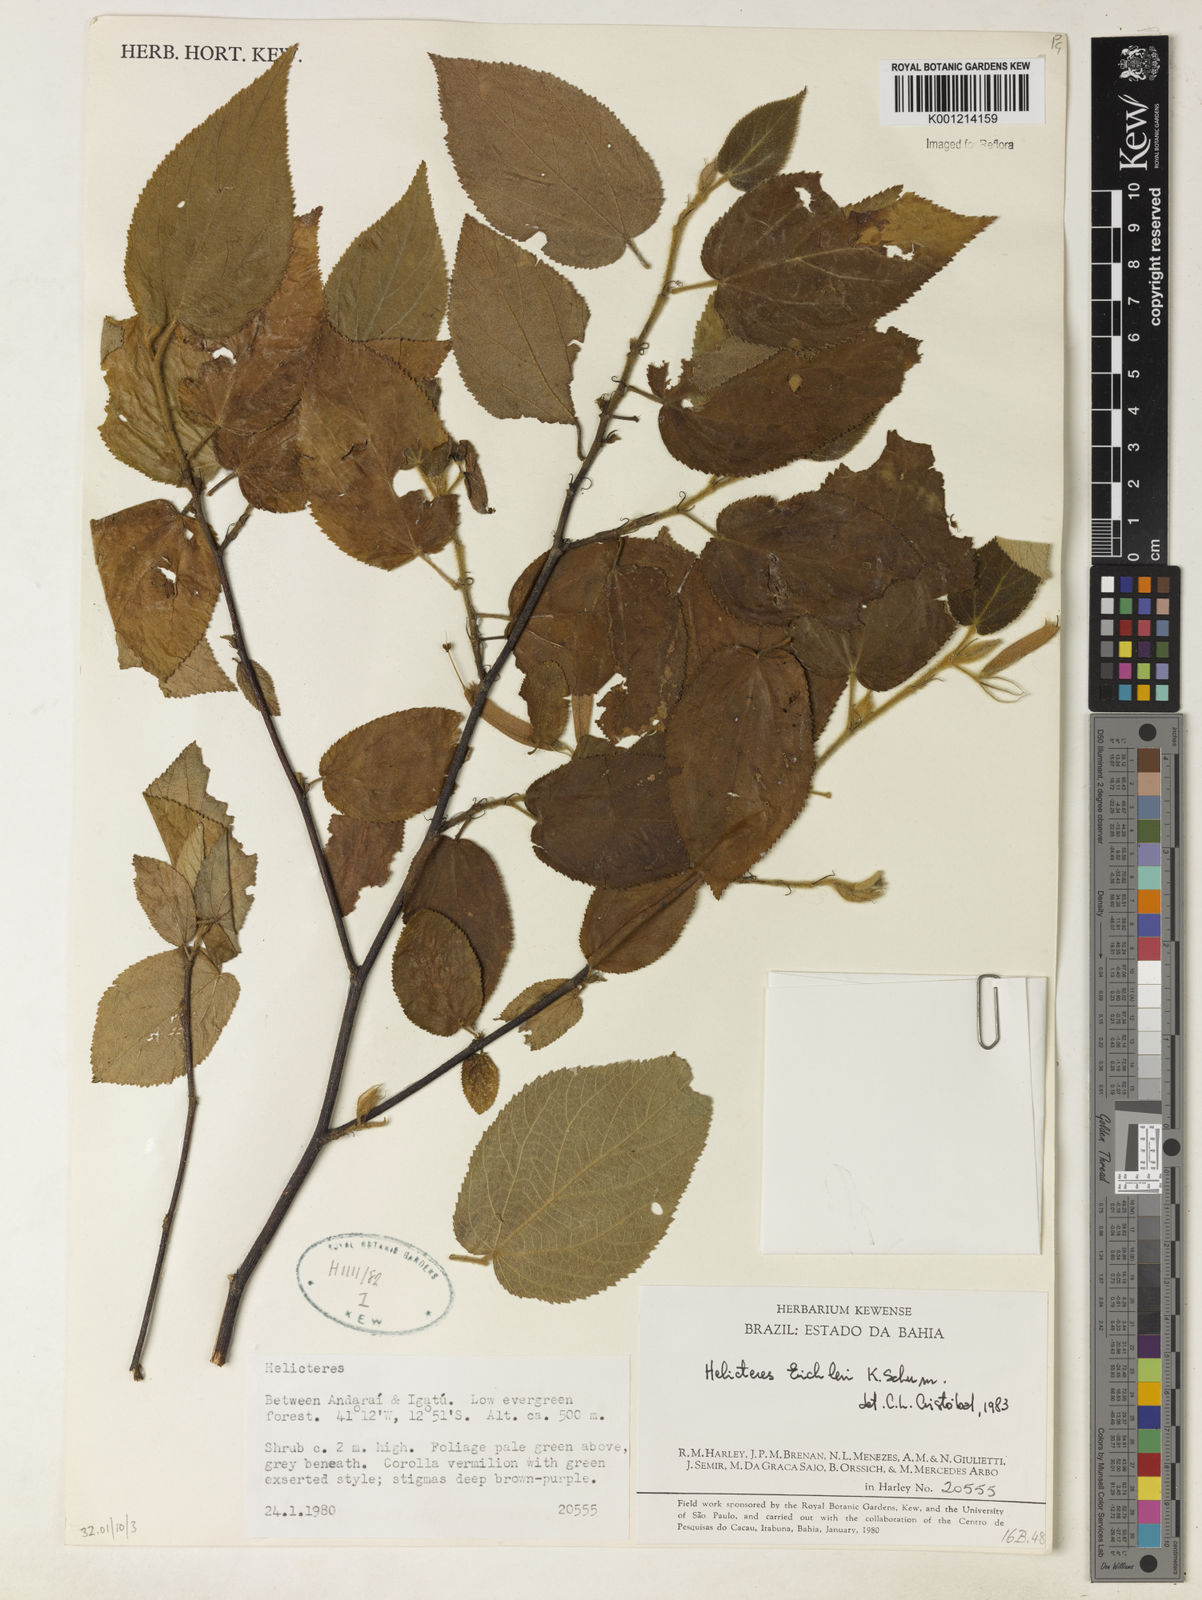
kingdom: Plantae
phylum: Tracheophyta
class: Magnoliopsida
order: Malvales
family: Malvaceae
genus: Helicteres
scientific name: Helicteres eichleri
